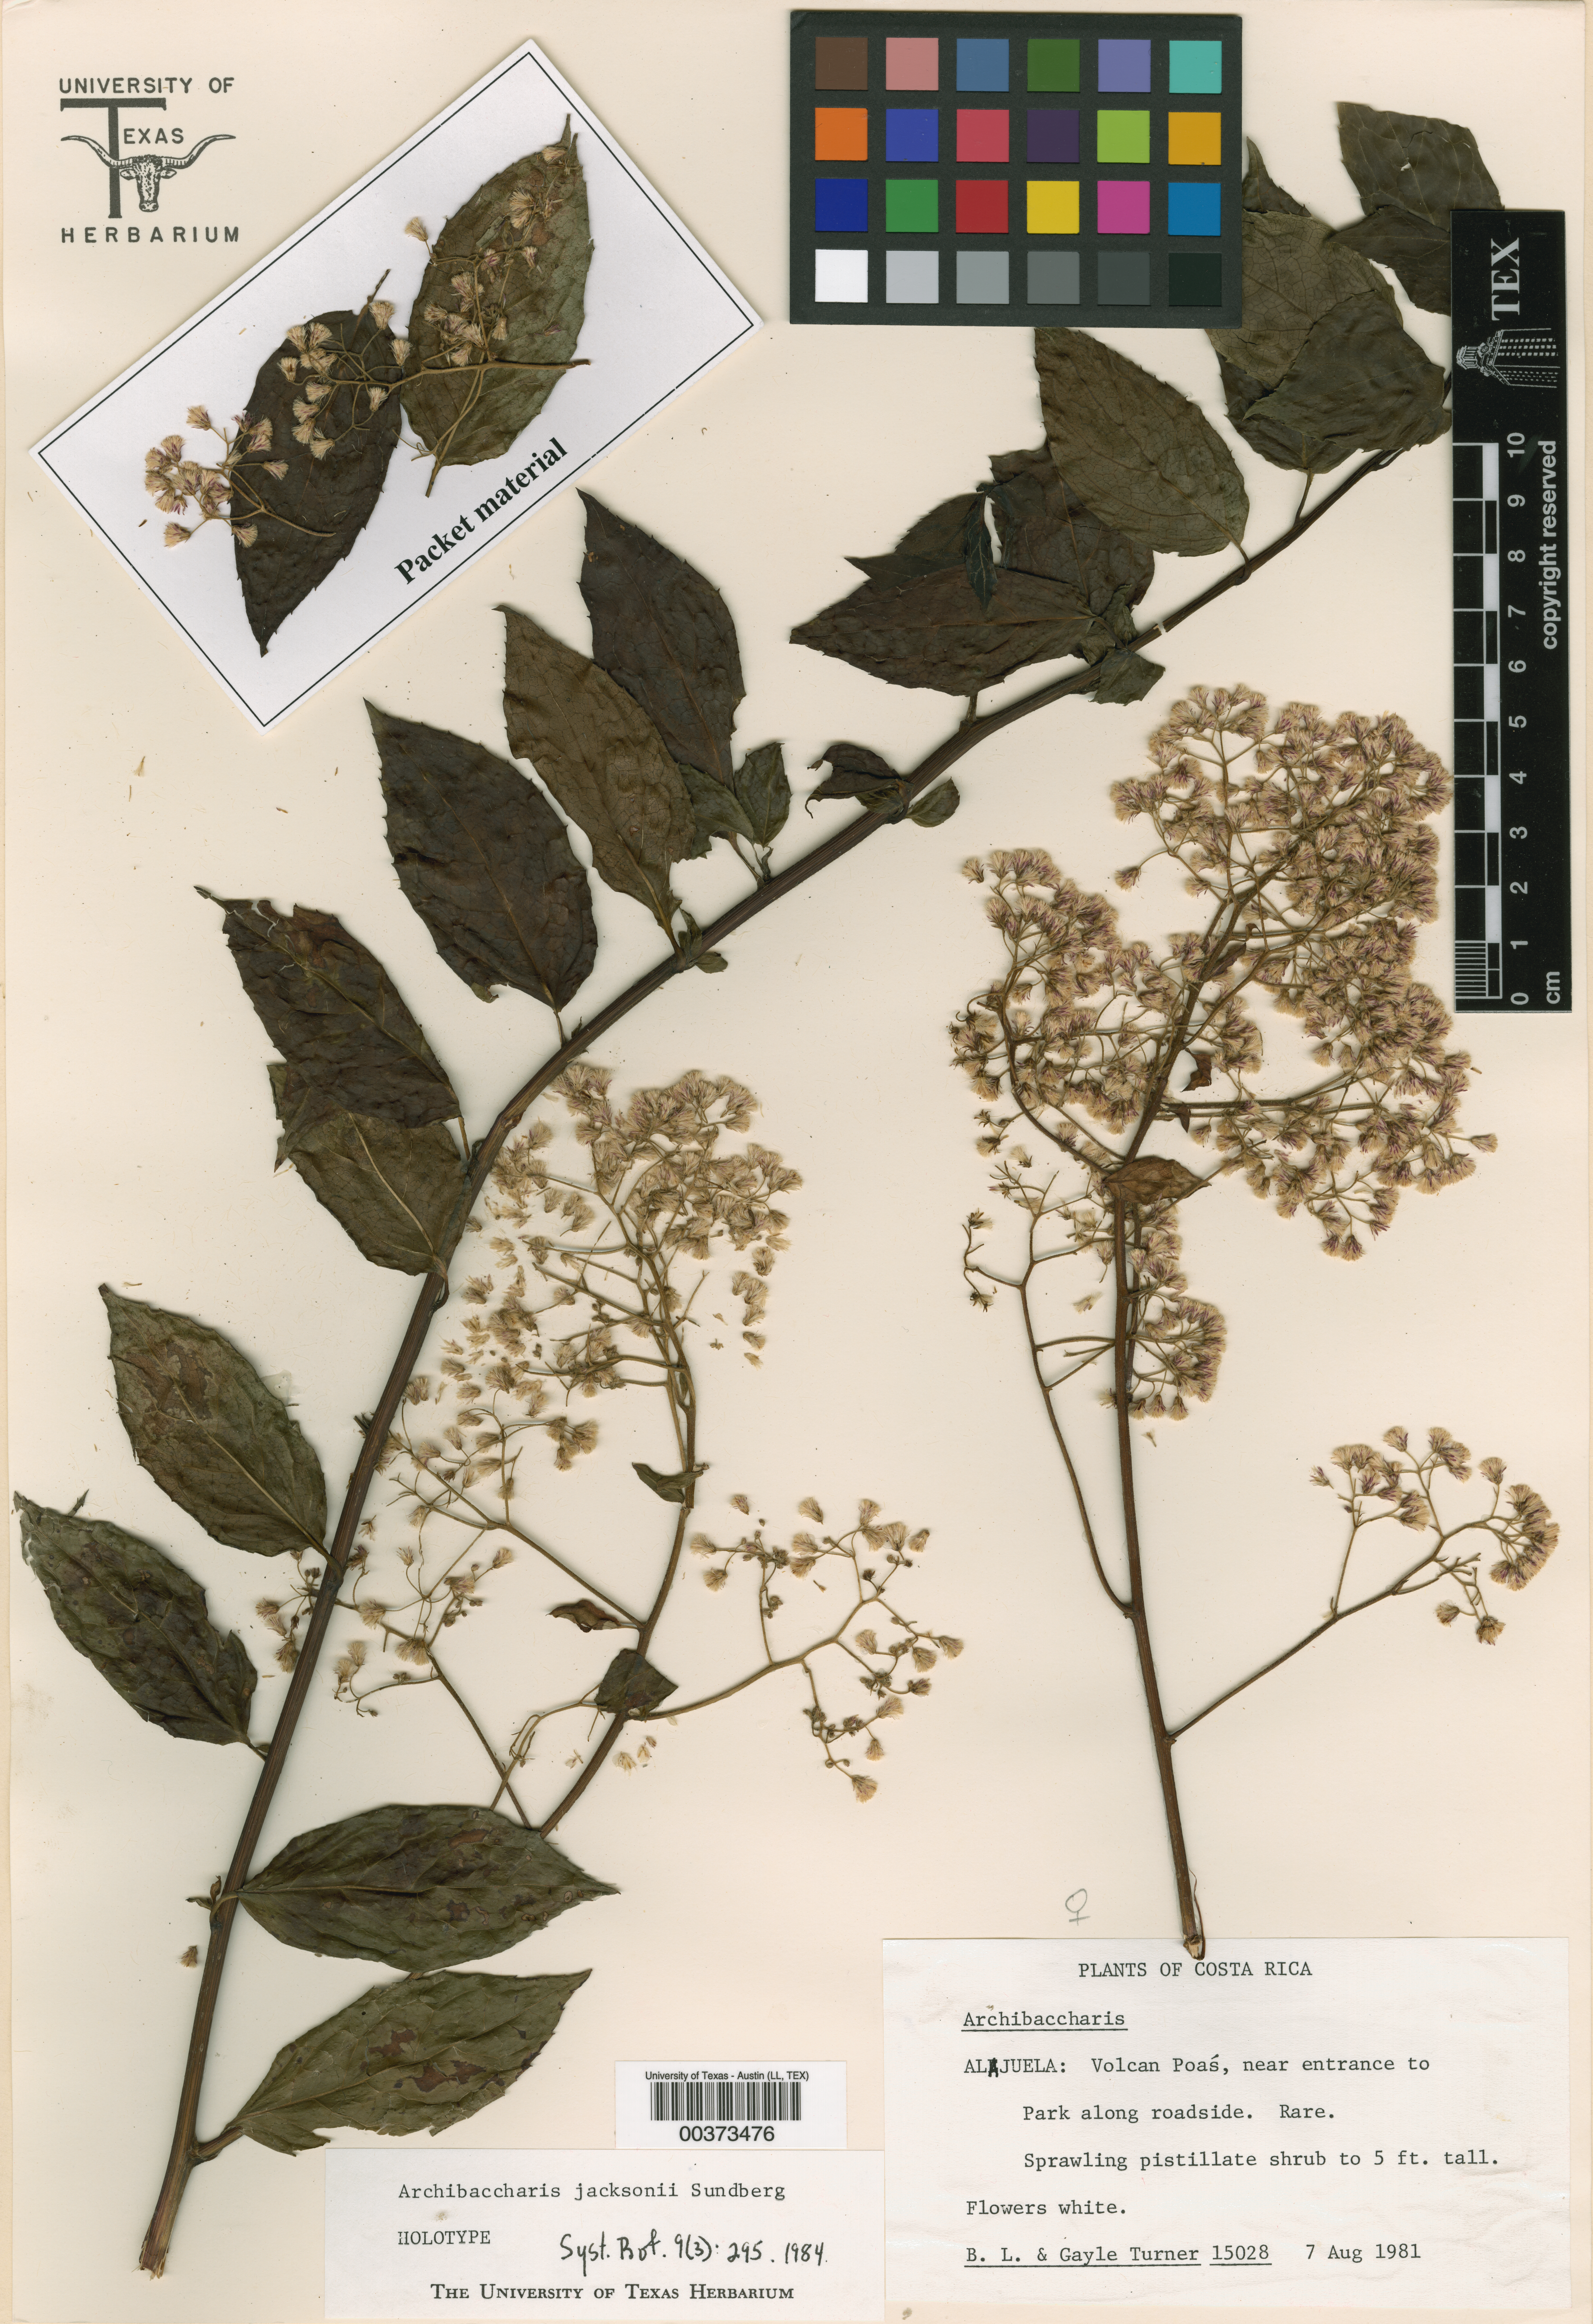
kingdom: Plantae
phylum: Tracheophyta
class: Magnoliopsida
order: Asterales
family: Asteraceae
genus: Archibaccharis
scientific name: Archibaccharis jacksonii
